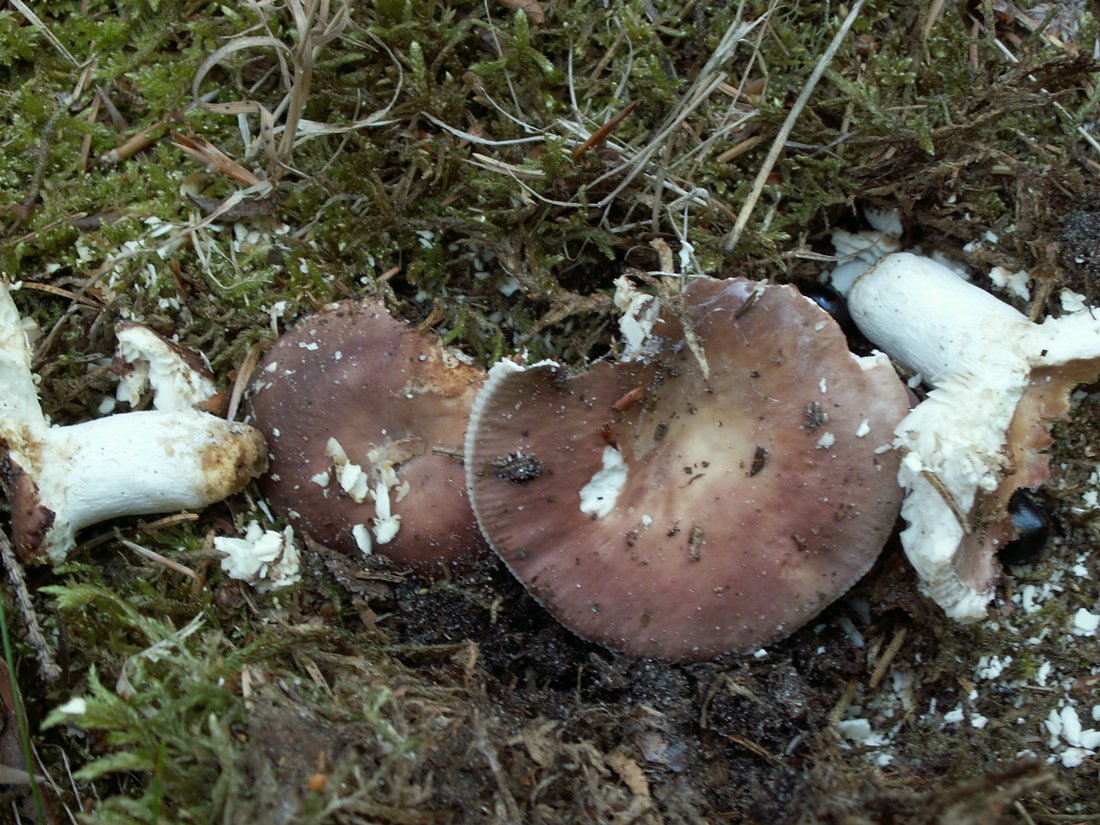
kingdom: Fungi
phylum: Basidiomycota
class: Agaricomycetes
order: Russulales
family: Russulaceae
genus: Russula
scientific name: Russula vesca
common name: spiselig skørhat
